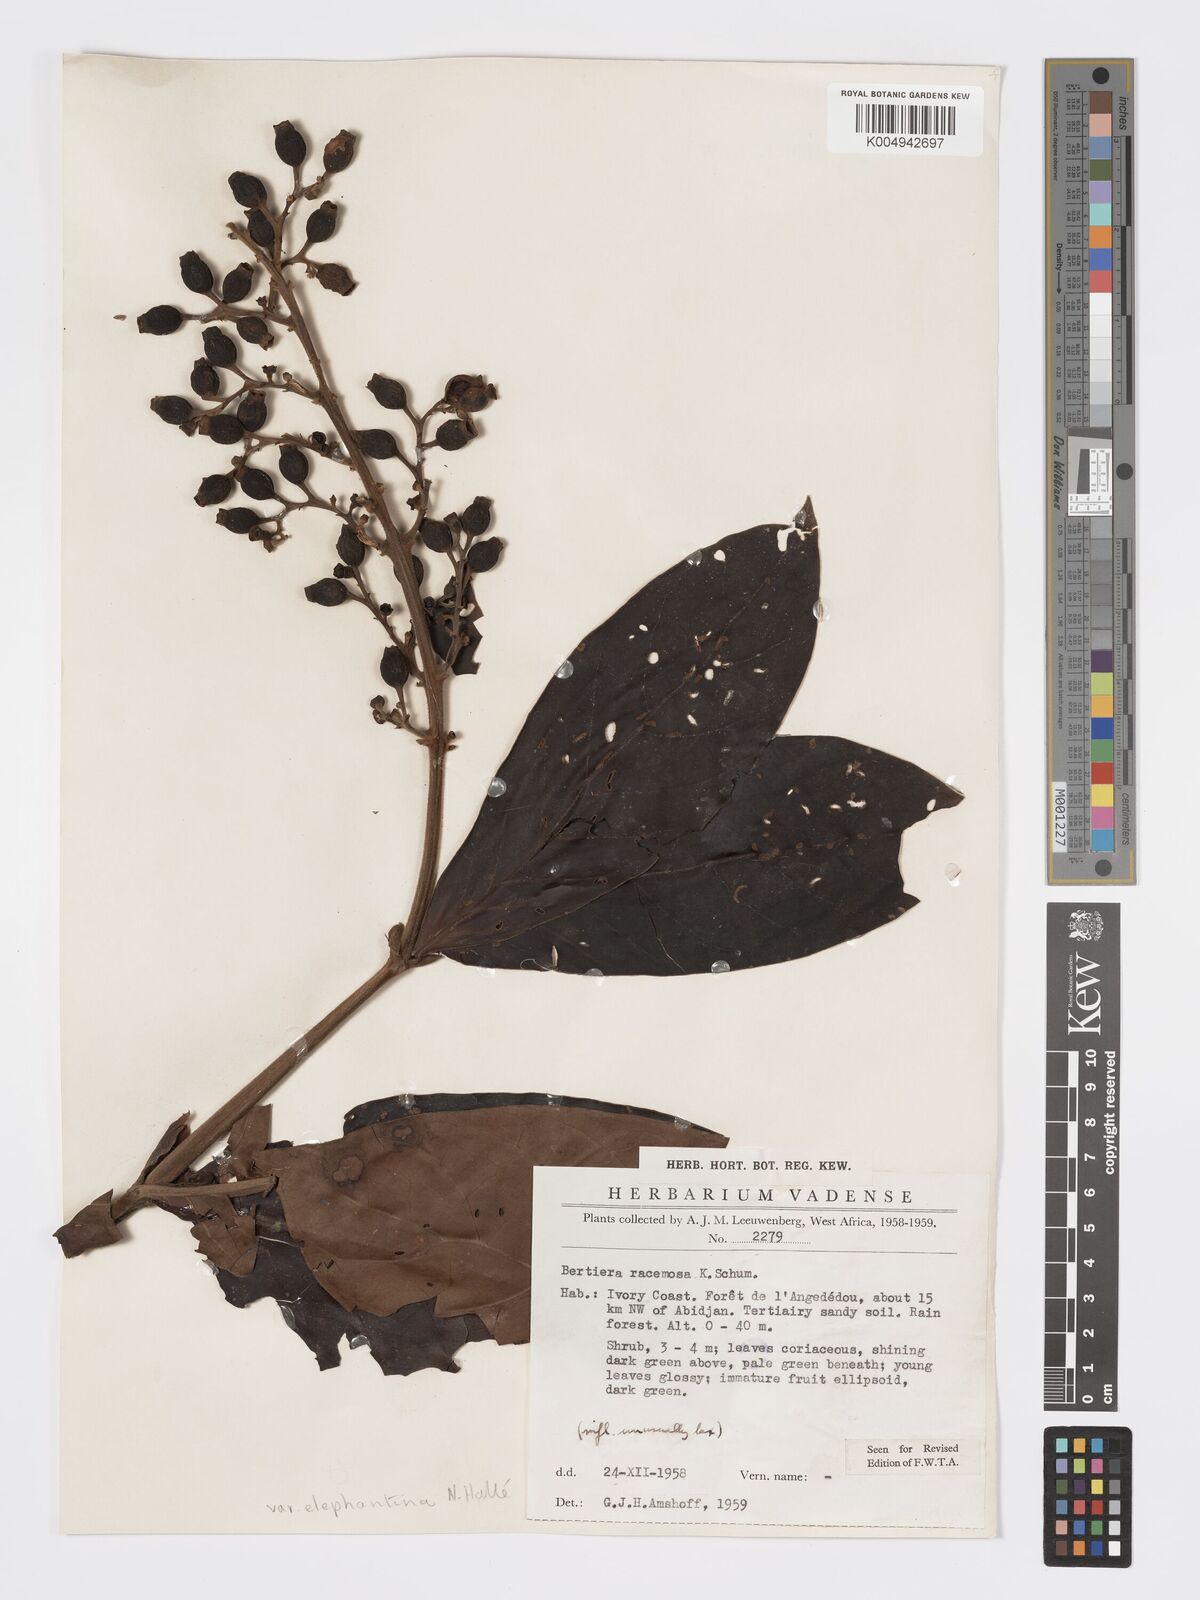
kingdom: Plantae
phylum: Tracheophyta
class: Magnoliopsida
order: Gentianales
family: Rubiaceae
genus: Bertiera
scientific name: Bertiera racemosa
